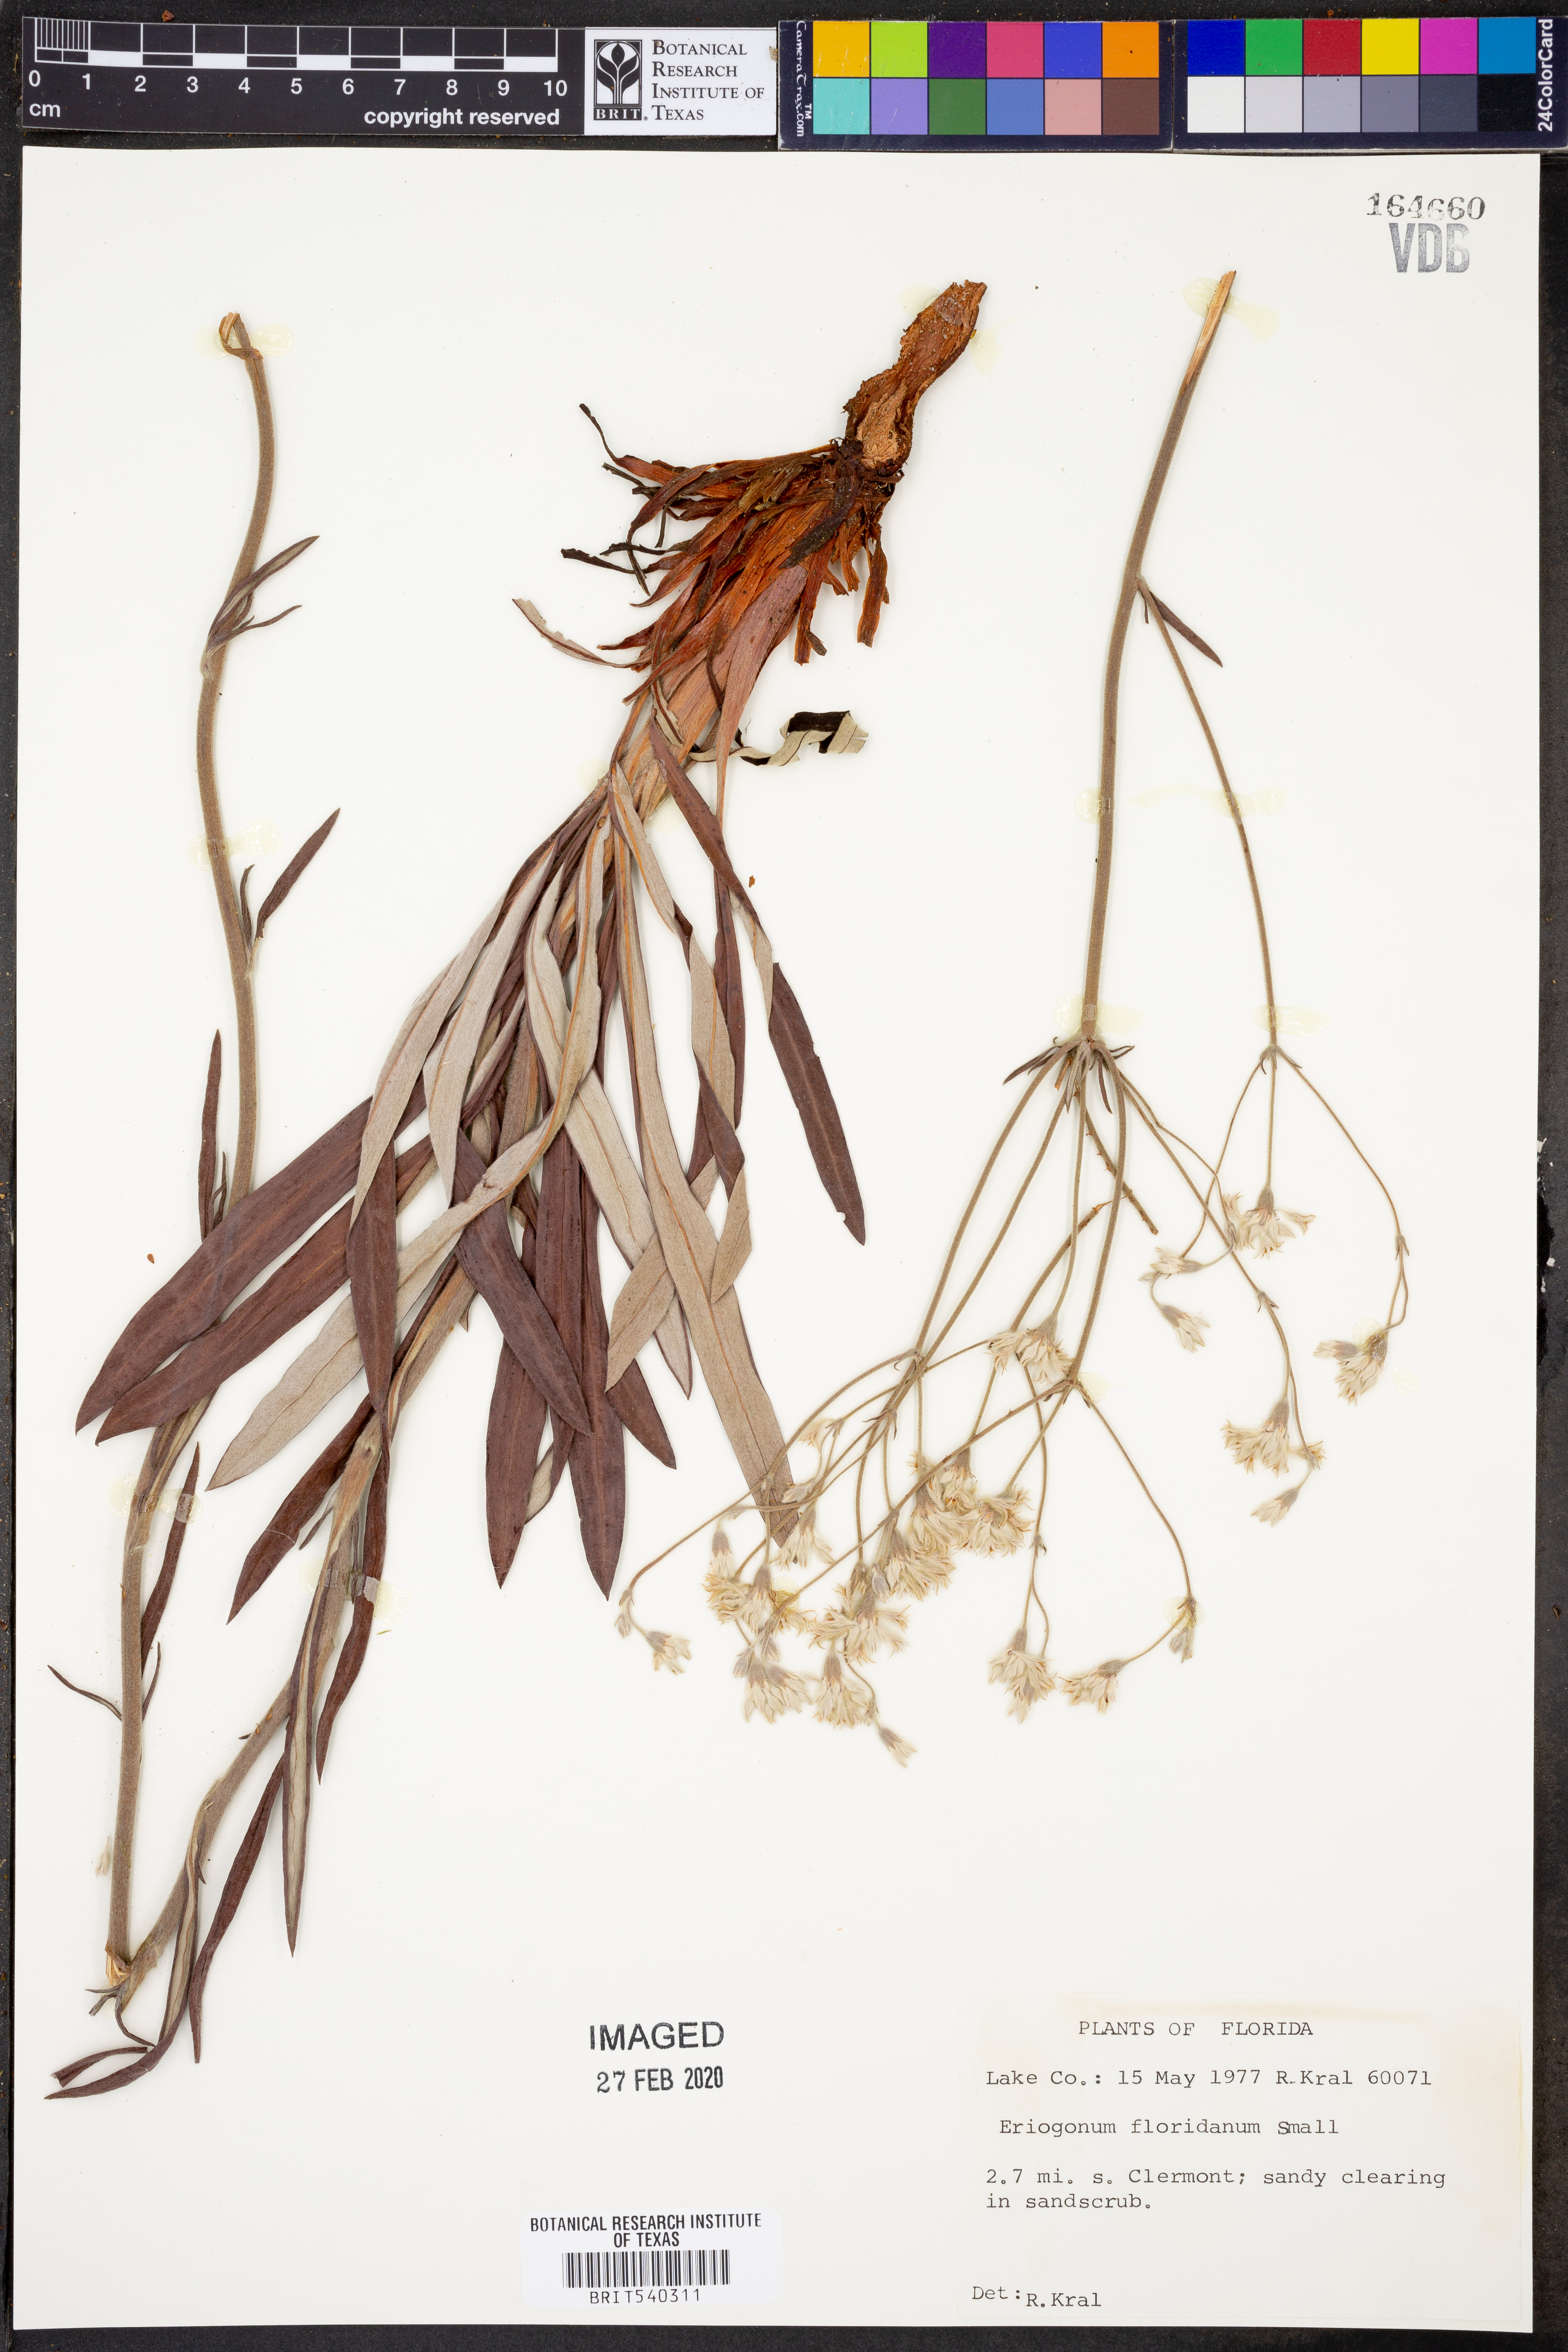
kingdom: Plantae
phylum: Tracheophyta
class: Magnoliopsida
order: Caryophyllales
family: Polygonaceae
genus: Eriogonum
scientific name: Eriogonum longifolium
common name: Longleaf wild buckwheat
